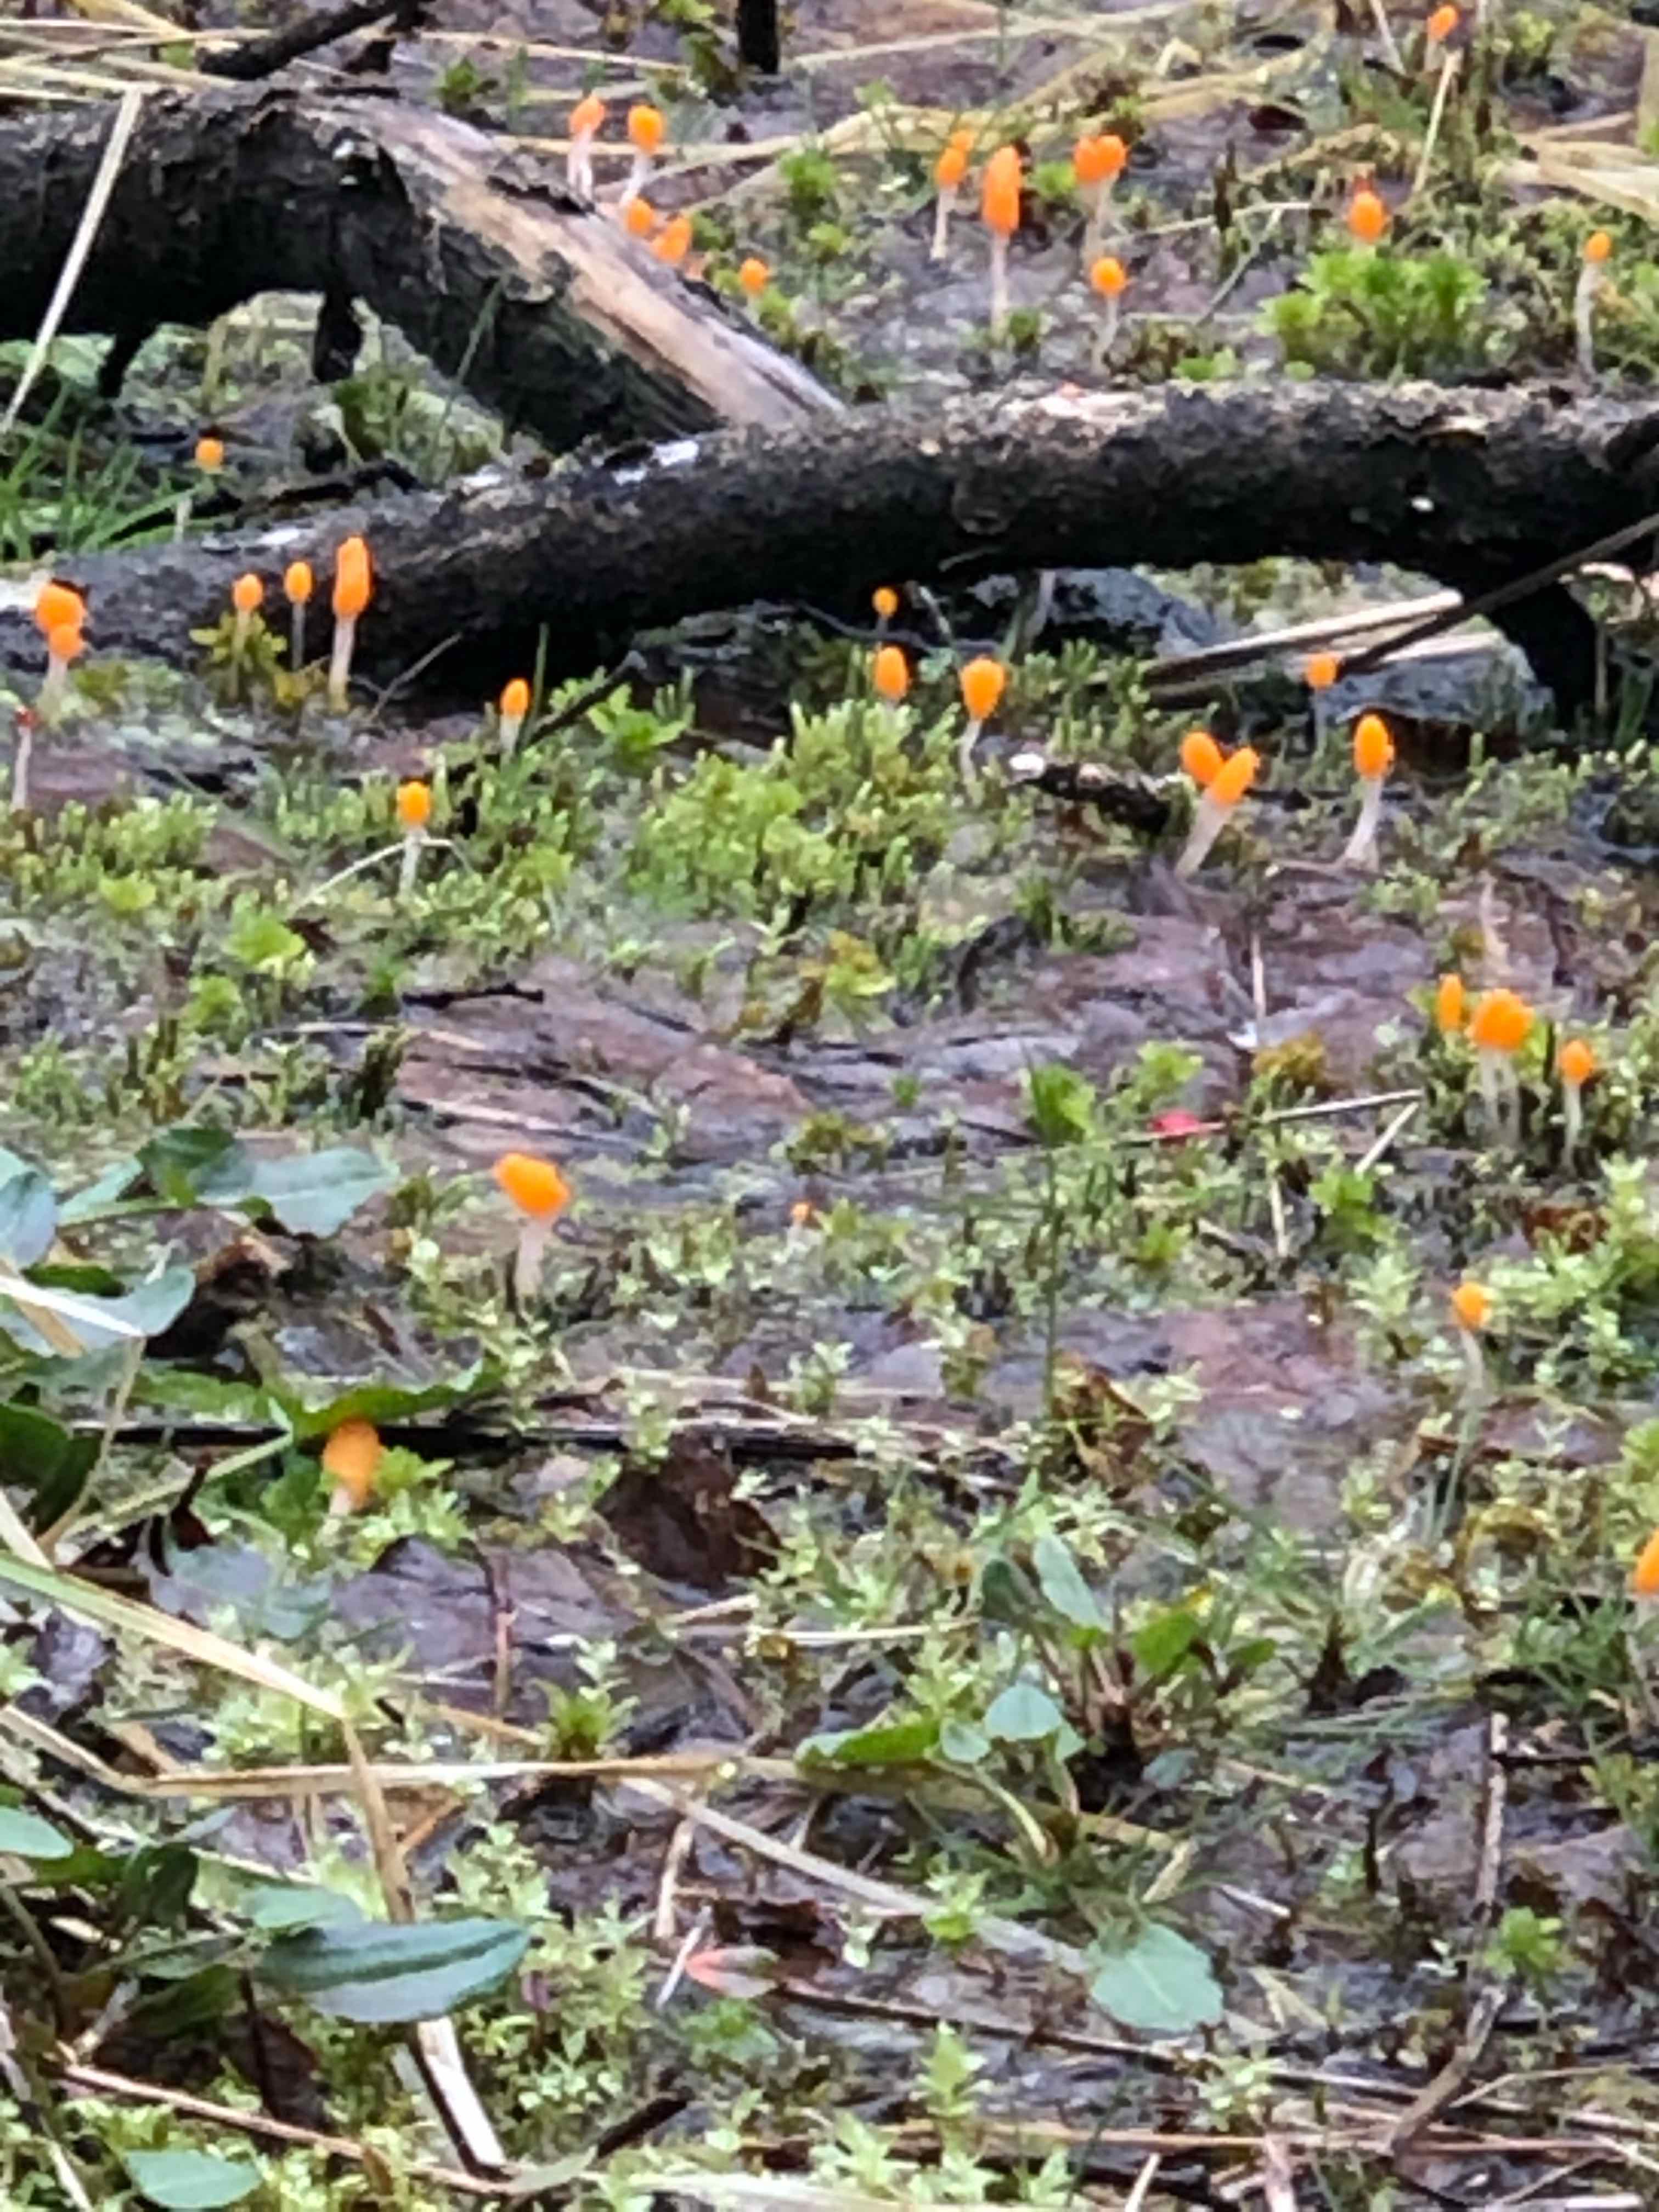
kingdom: Fungi
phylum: Ascomycota
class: Leotiomycetes
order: Helotiales
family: Cenangiaceae
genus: Mitrula
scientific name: Mitrula paludosa
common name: gul nøkketunge
